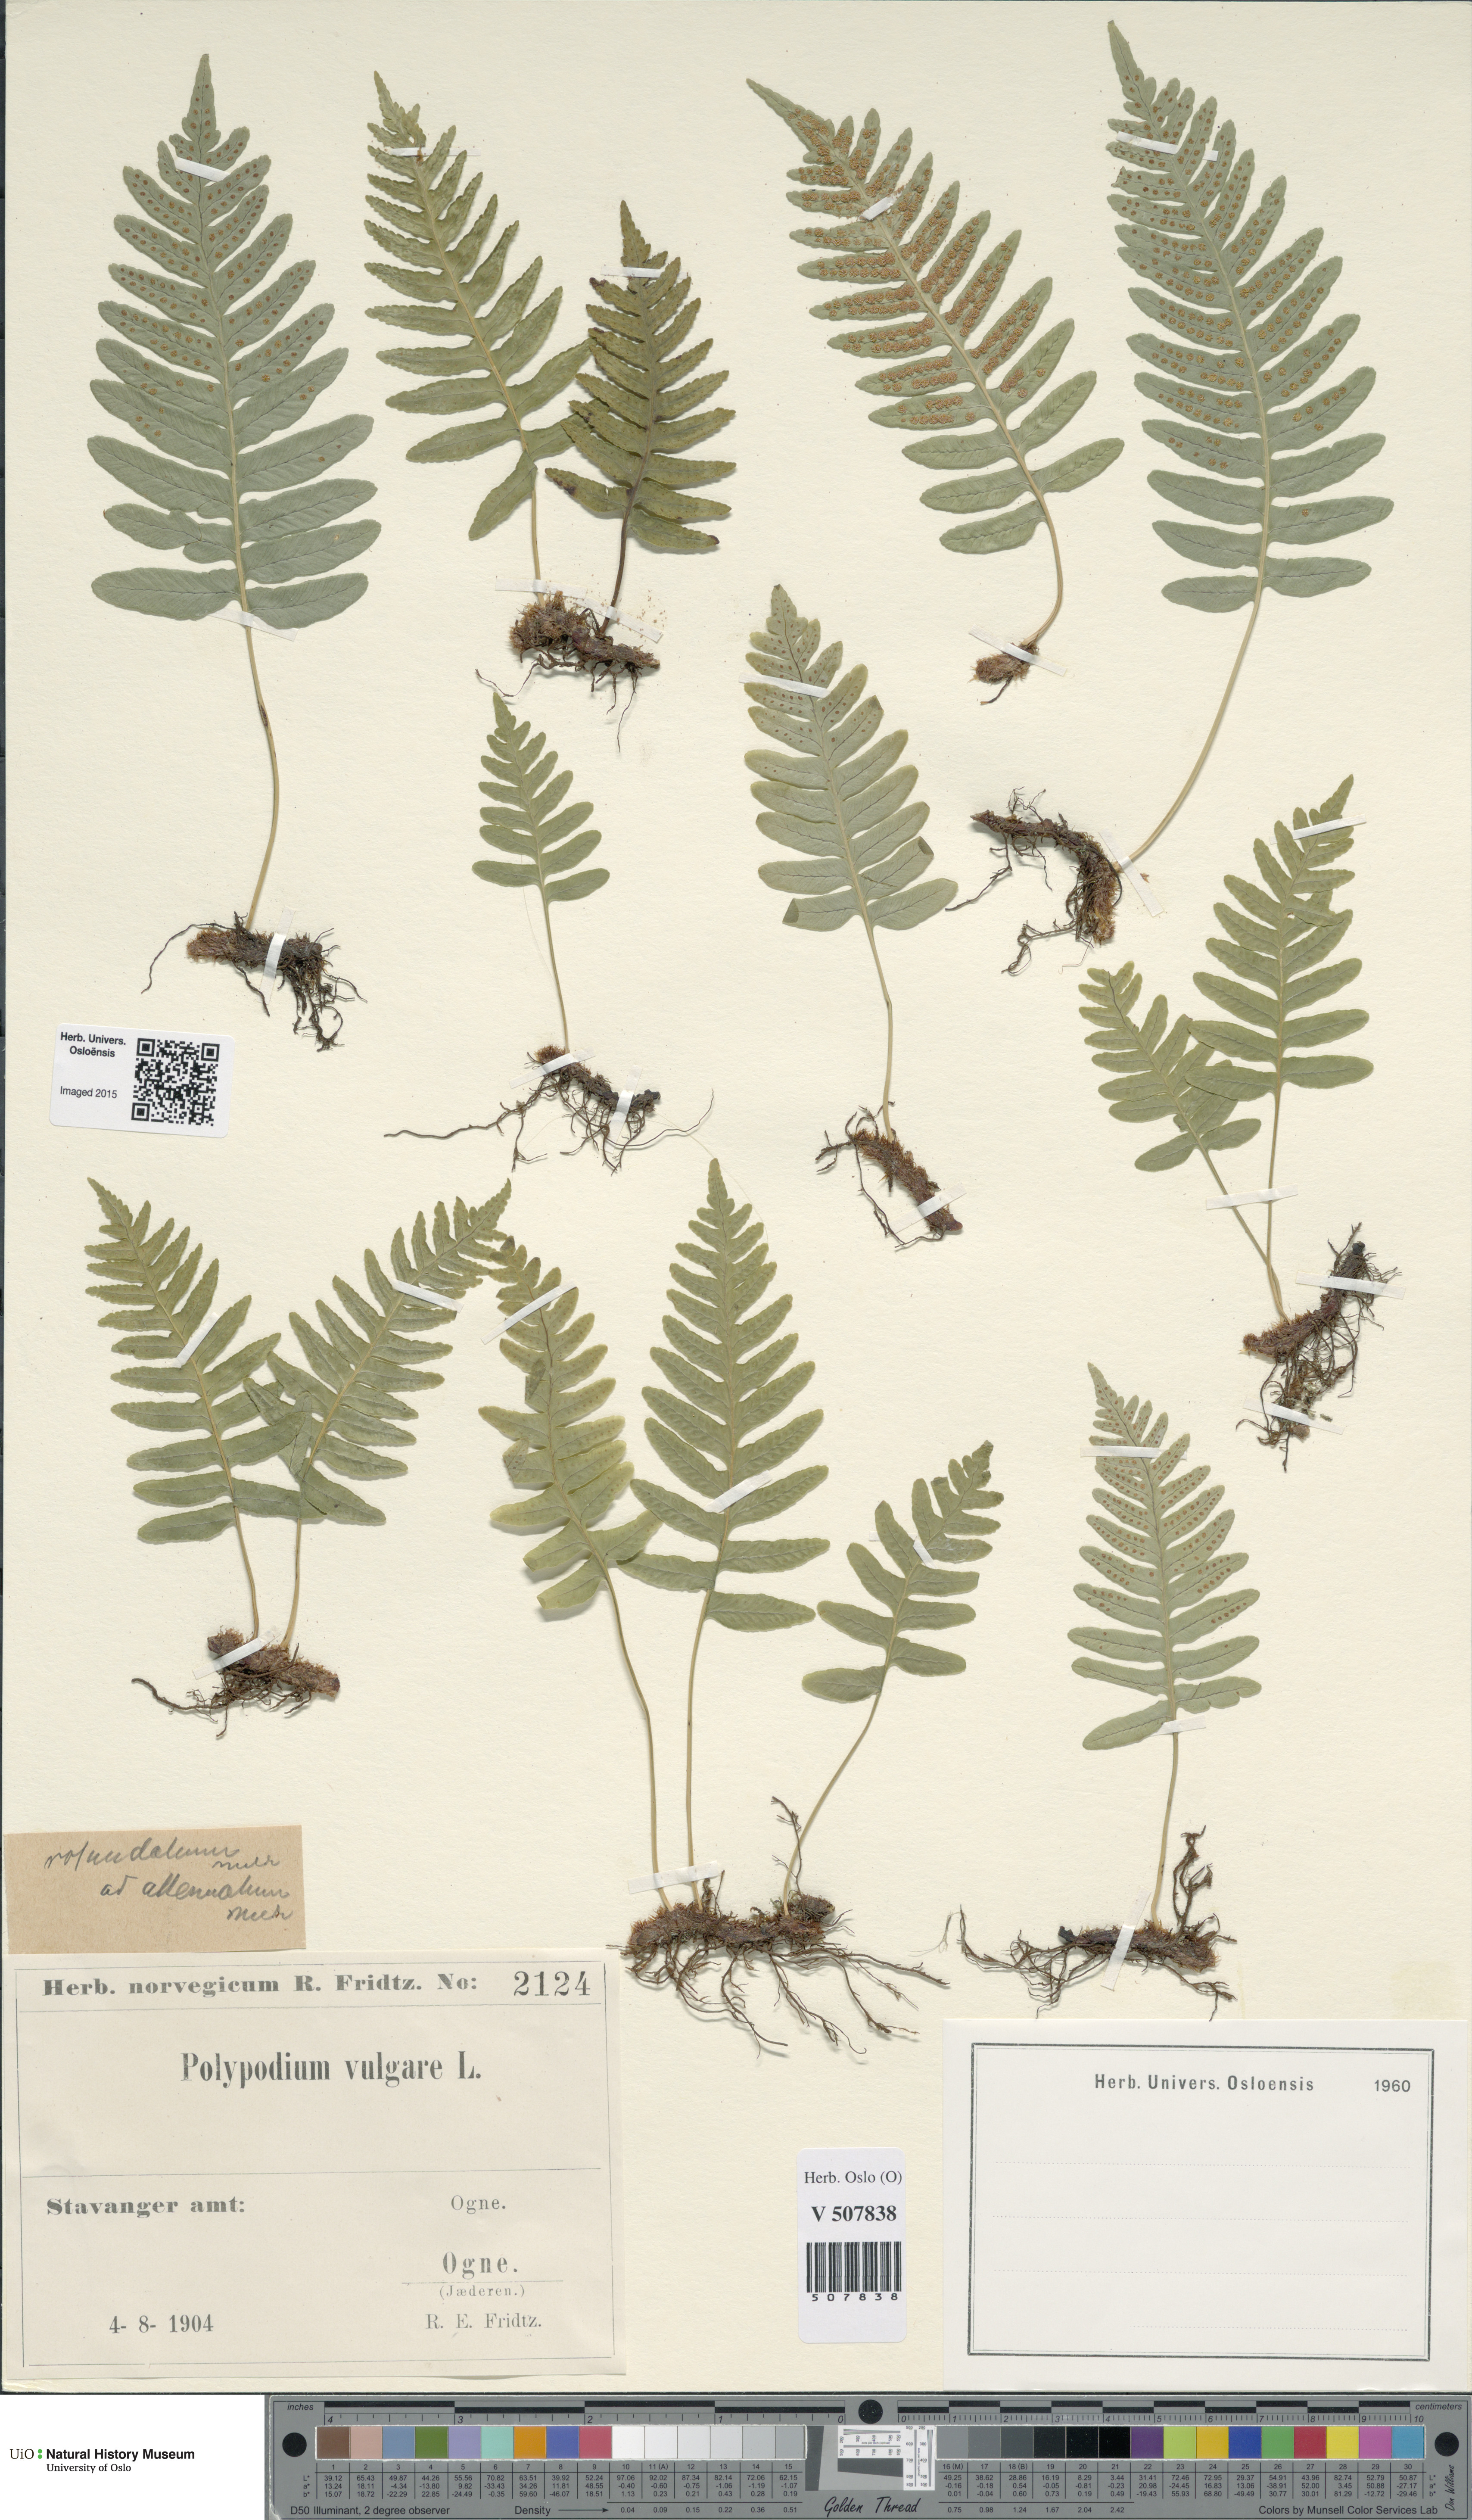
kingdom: Plantae
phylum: Tracheophyta
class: Polypodiopsida
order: Polypodiales
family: Polypodiaceae
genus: Polypodium
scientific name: Polypodium vulgare
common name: Common polypody
